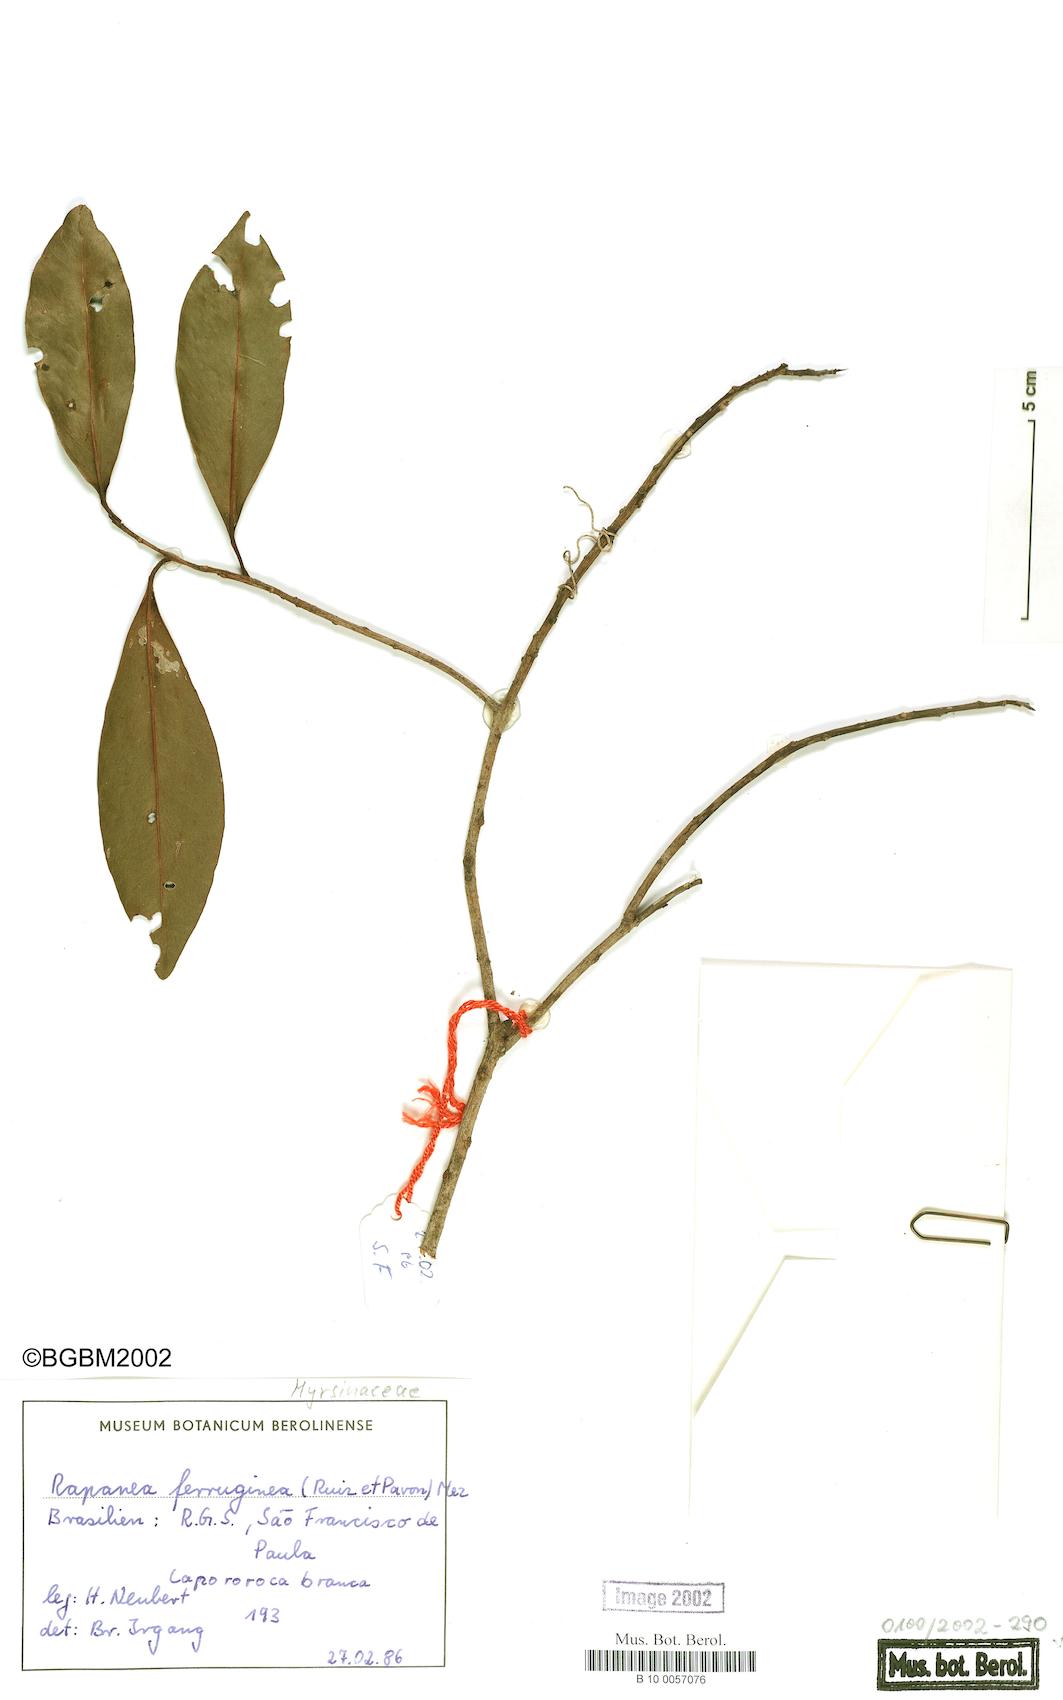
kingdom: Plantae
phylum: Tracheophyta
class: Magnoliopsida
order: Ericales
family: Primulaceae
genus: Myrsine
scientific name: Myrsine coriacea
